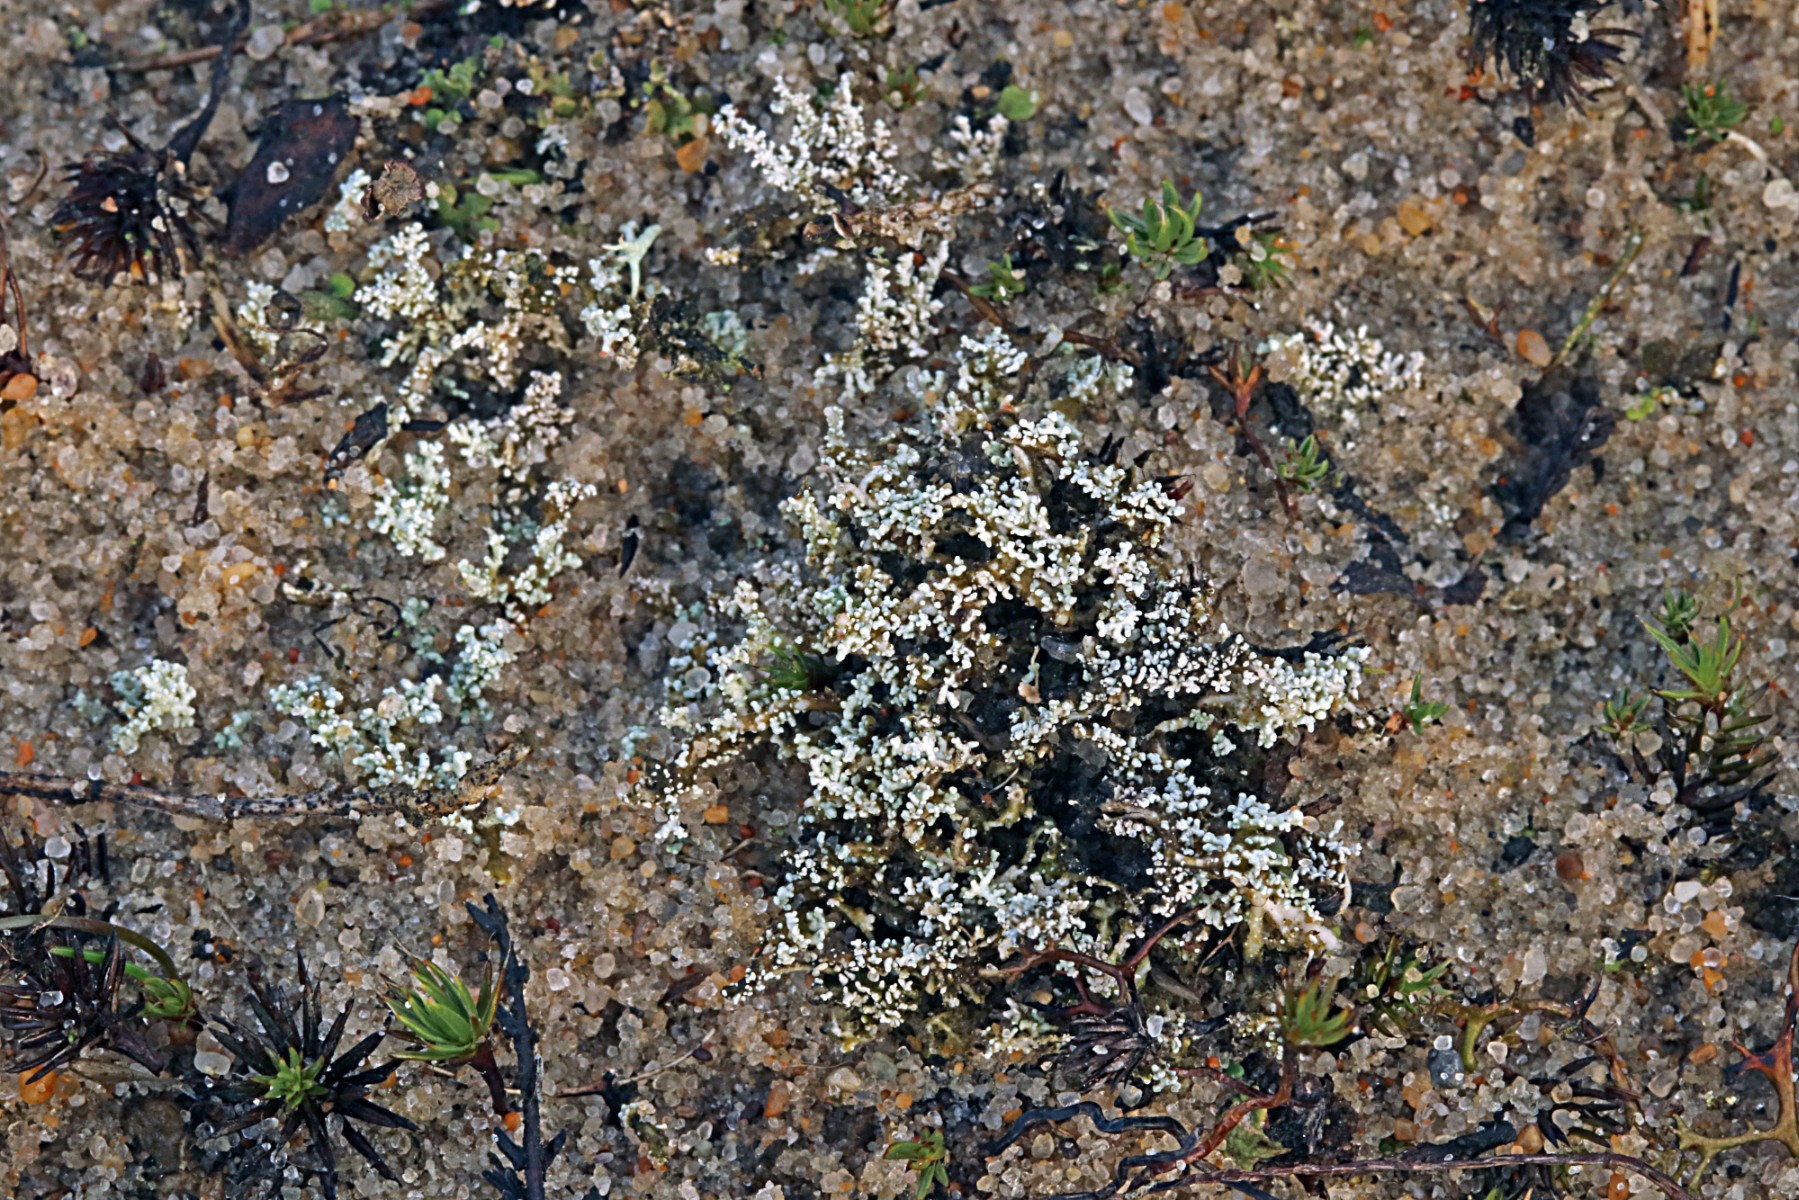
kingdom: Fungi
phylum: Ascomycota
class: Lecanoromycetes
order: Lecanorales
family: Stereocaulaceae
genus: Stereocaulon
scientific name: Stereocaulon condensatum
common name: lav korallav
